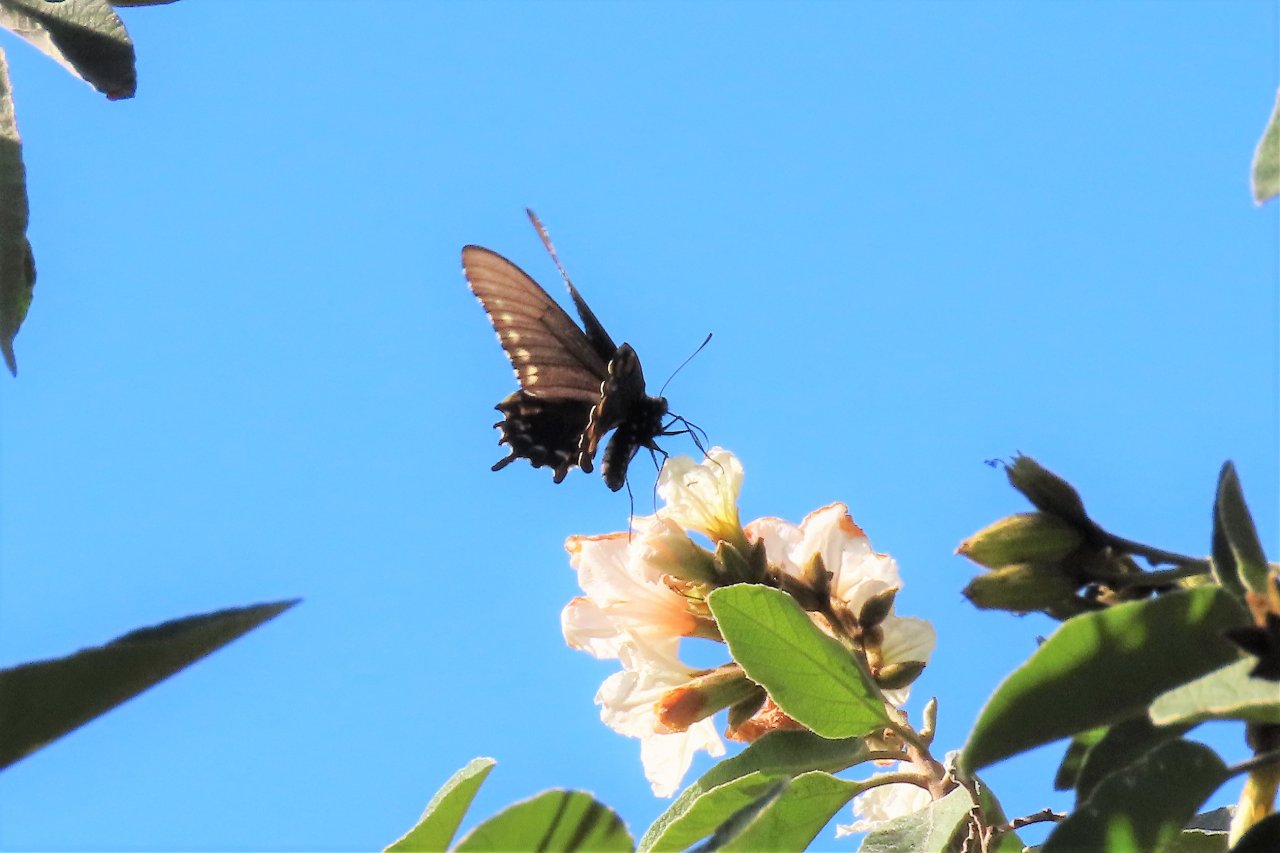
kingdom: Animalia
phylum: Arthropoda
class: Insecta
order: Lepidoptera
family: Papilionidae
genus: Battus
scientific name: Battus philenor
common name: Pipevine Swallowtail
